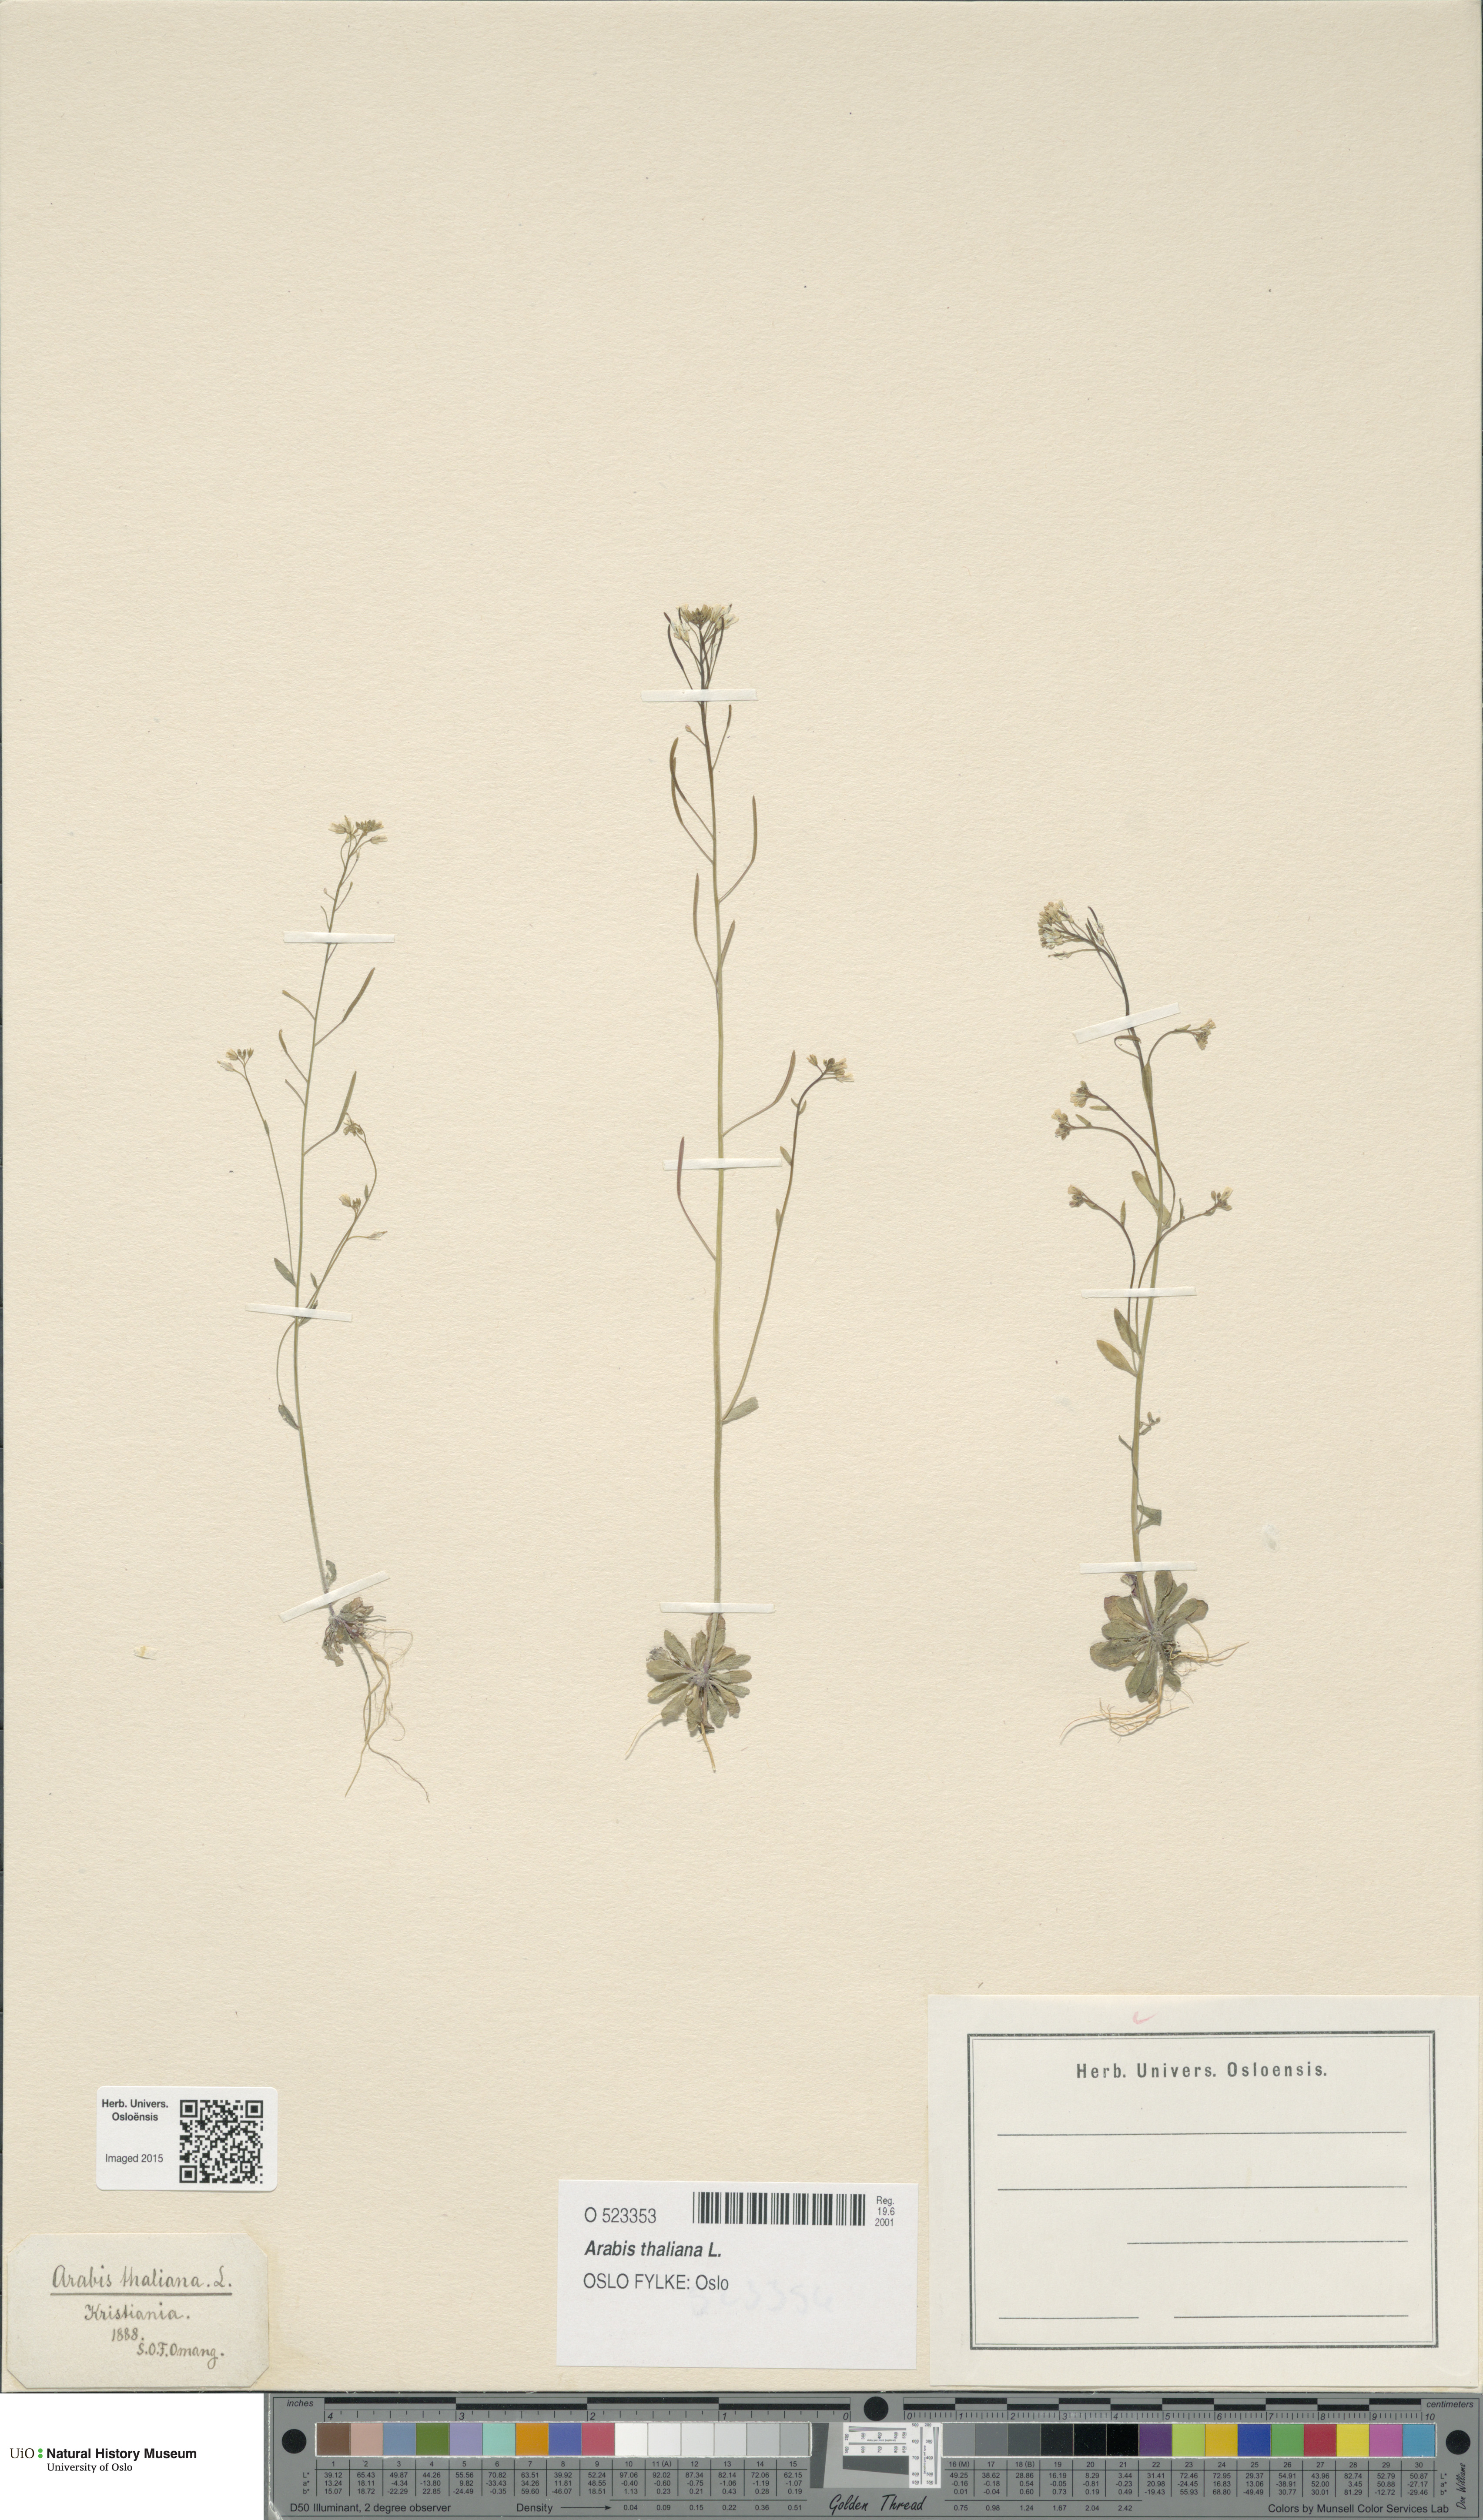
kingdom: Plantae
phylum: Tracheophyta
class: Magnoliopsida
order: Brassicales
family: Brassicaceae
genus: Arabidopsis
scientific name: Arabidopsis thaliana
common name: Thale cress
